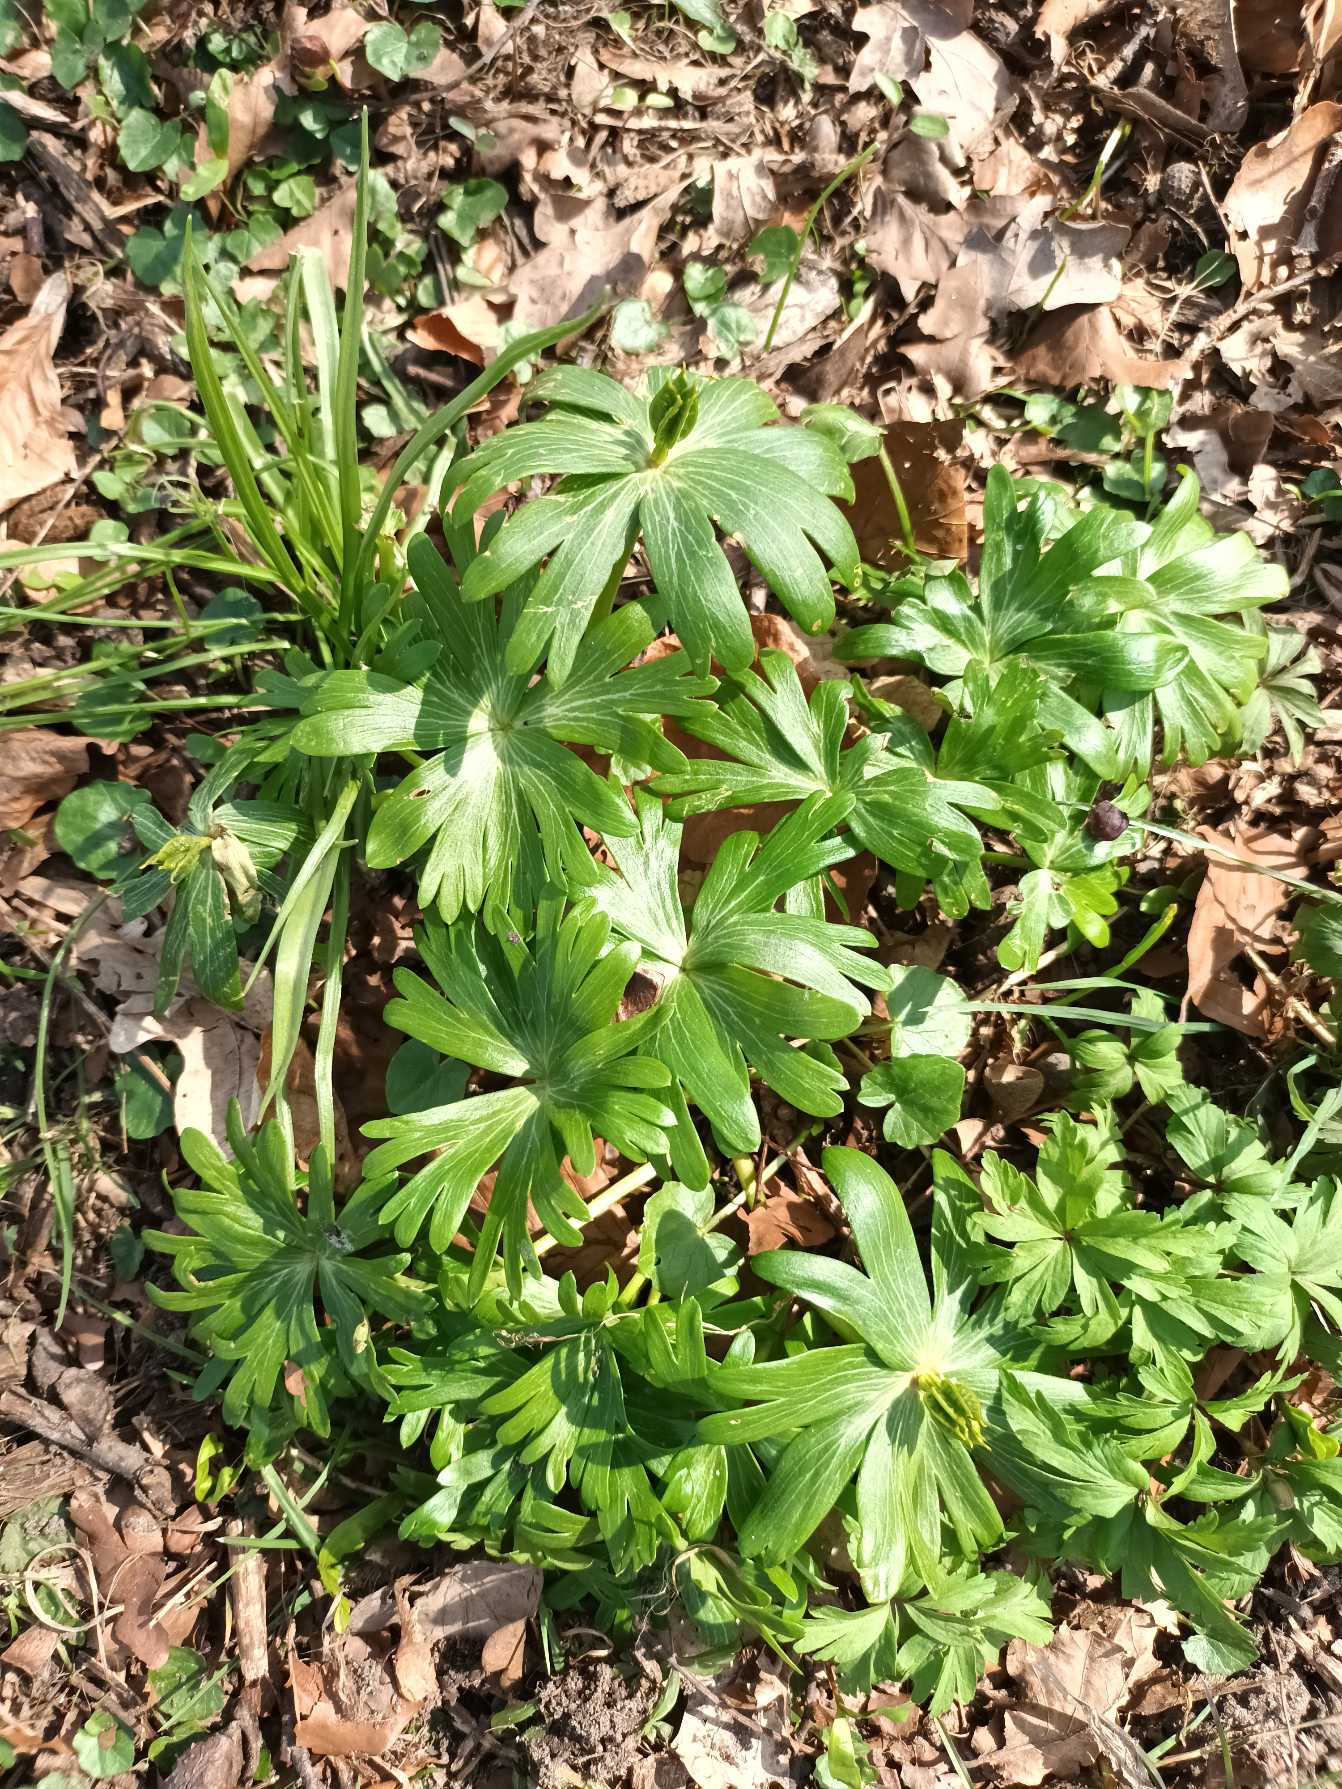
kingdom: Plantae
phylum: Tracheophyta
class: Magnoliopsida
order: Ranunculales
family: Ranunculaceae
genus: Eranthis
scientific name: Eranthis hyemalis
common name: Erantis
